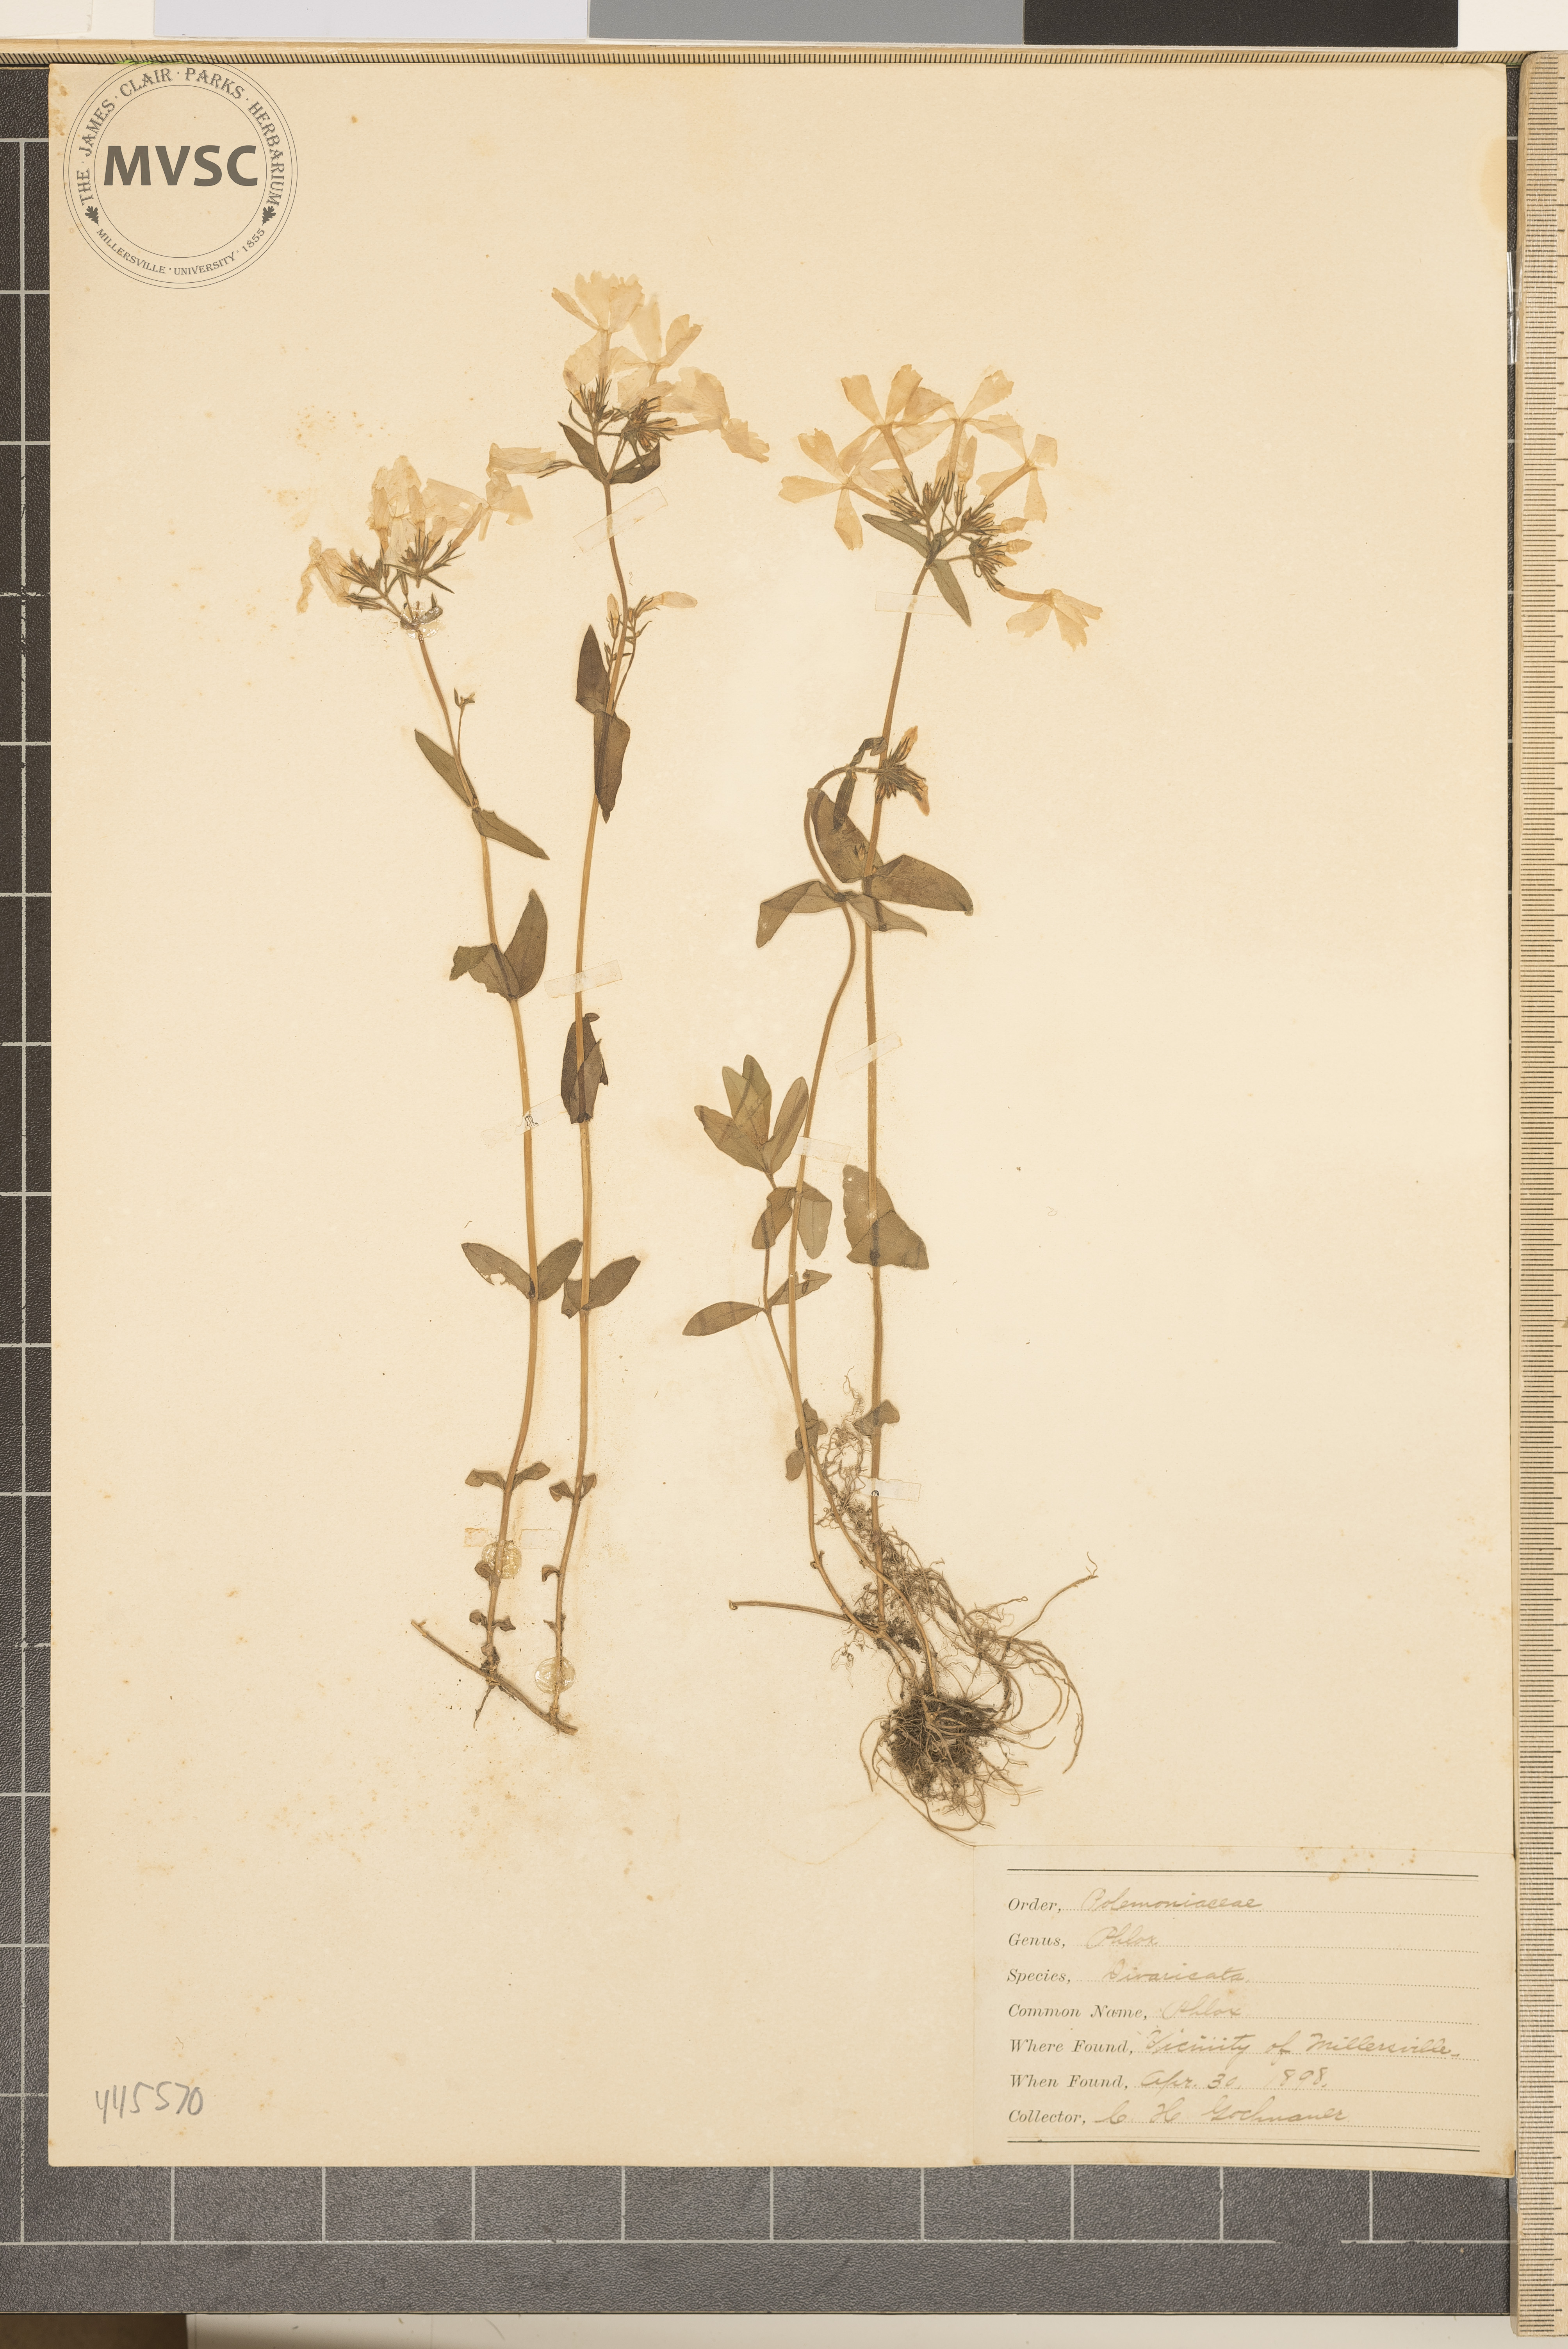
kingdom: Plantae
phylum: Tracheophyta
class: Magnoliopsida
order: Ericales
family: Polemoniaceae
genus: Phlox
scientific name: Phlox divaricata
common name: Phlox
